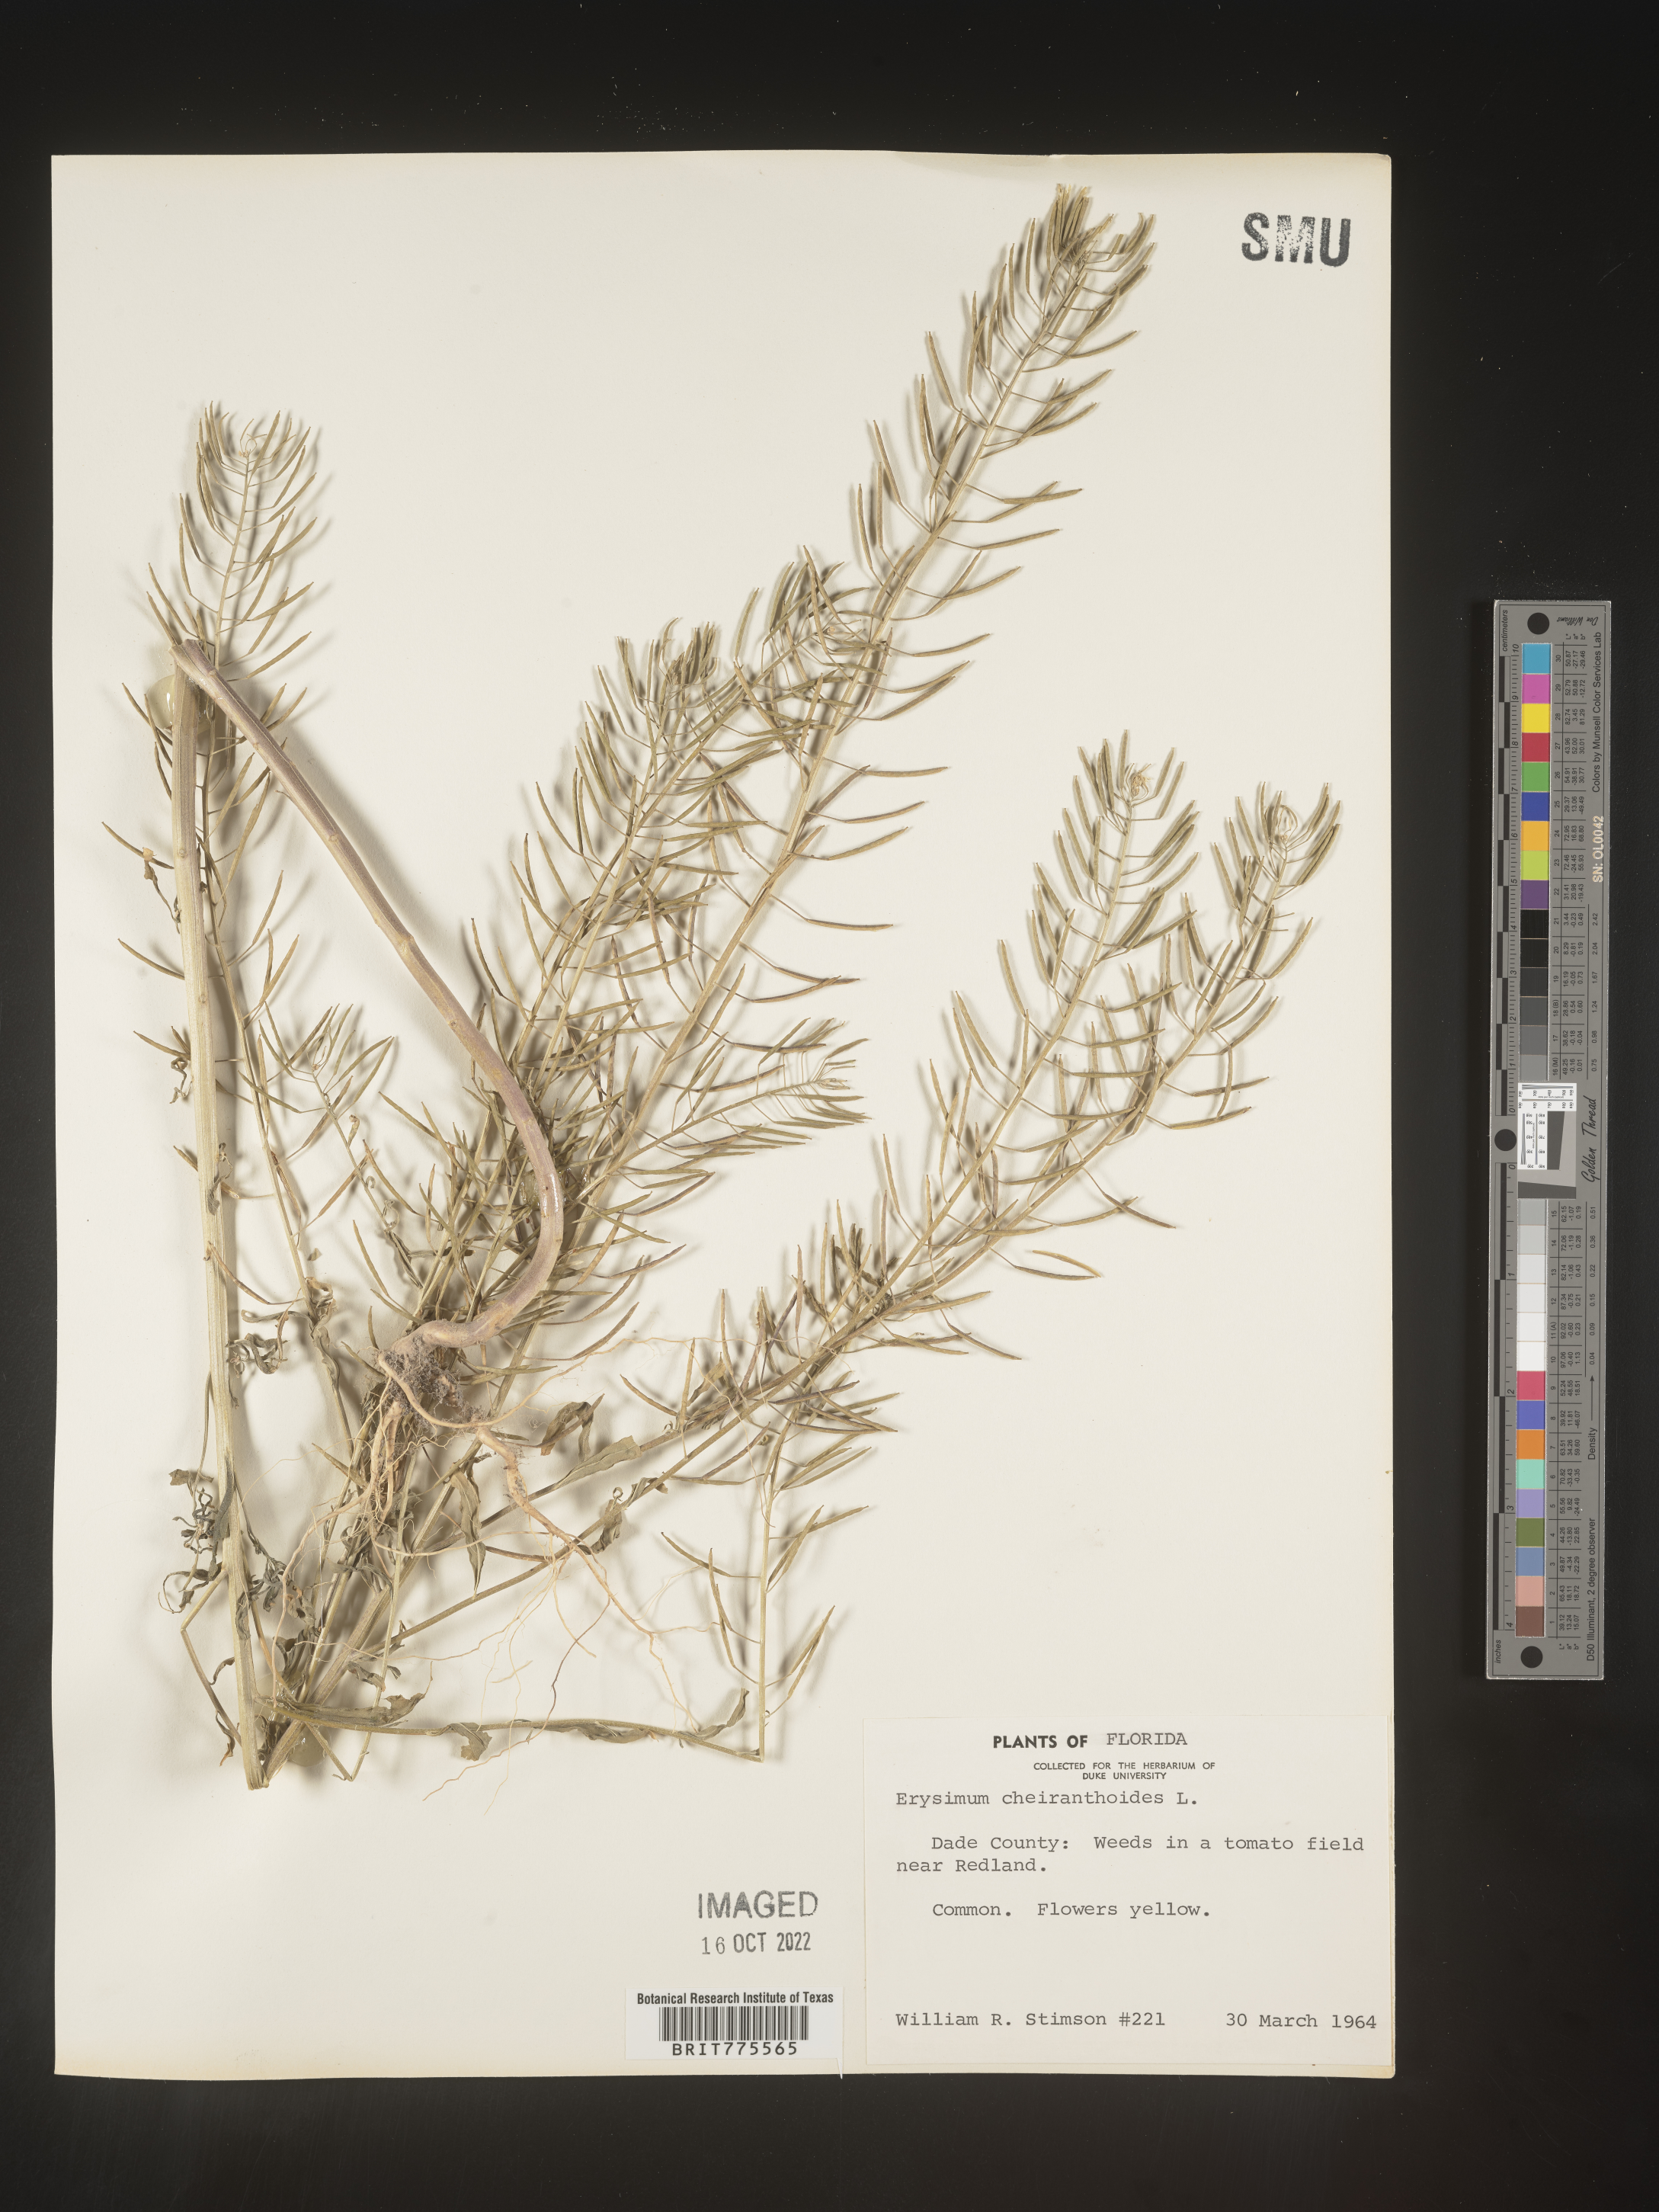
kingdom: Plantae
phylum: Tracheophyta
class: Magnoliopsida
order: Brassicales
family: Brassicaceae
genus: Erysimum
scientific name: Erysimum cheiranthoides
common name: Treacle mustard
